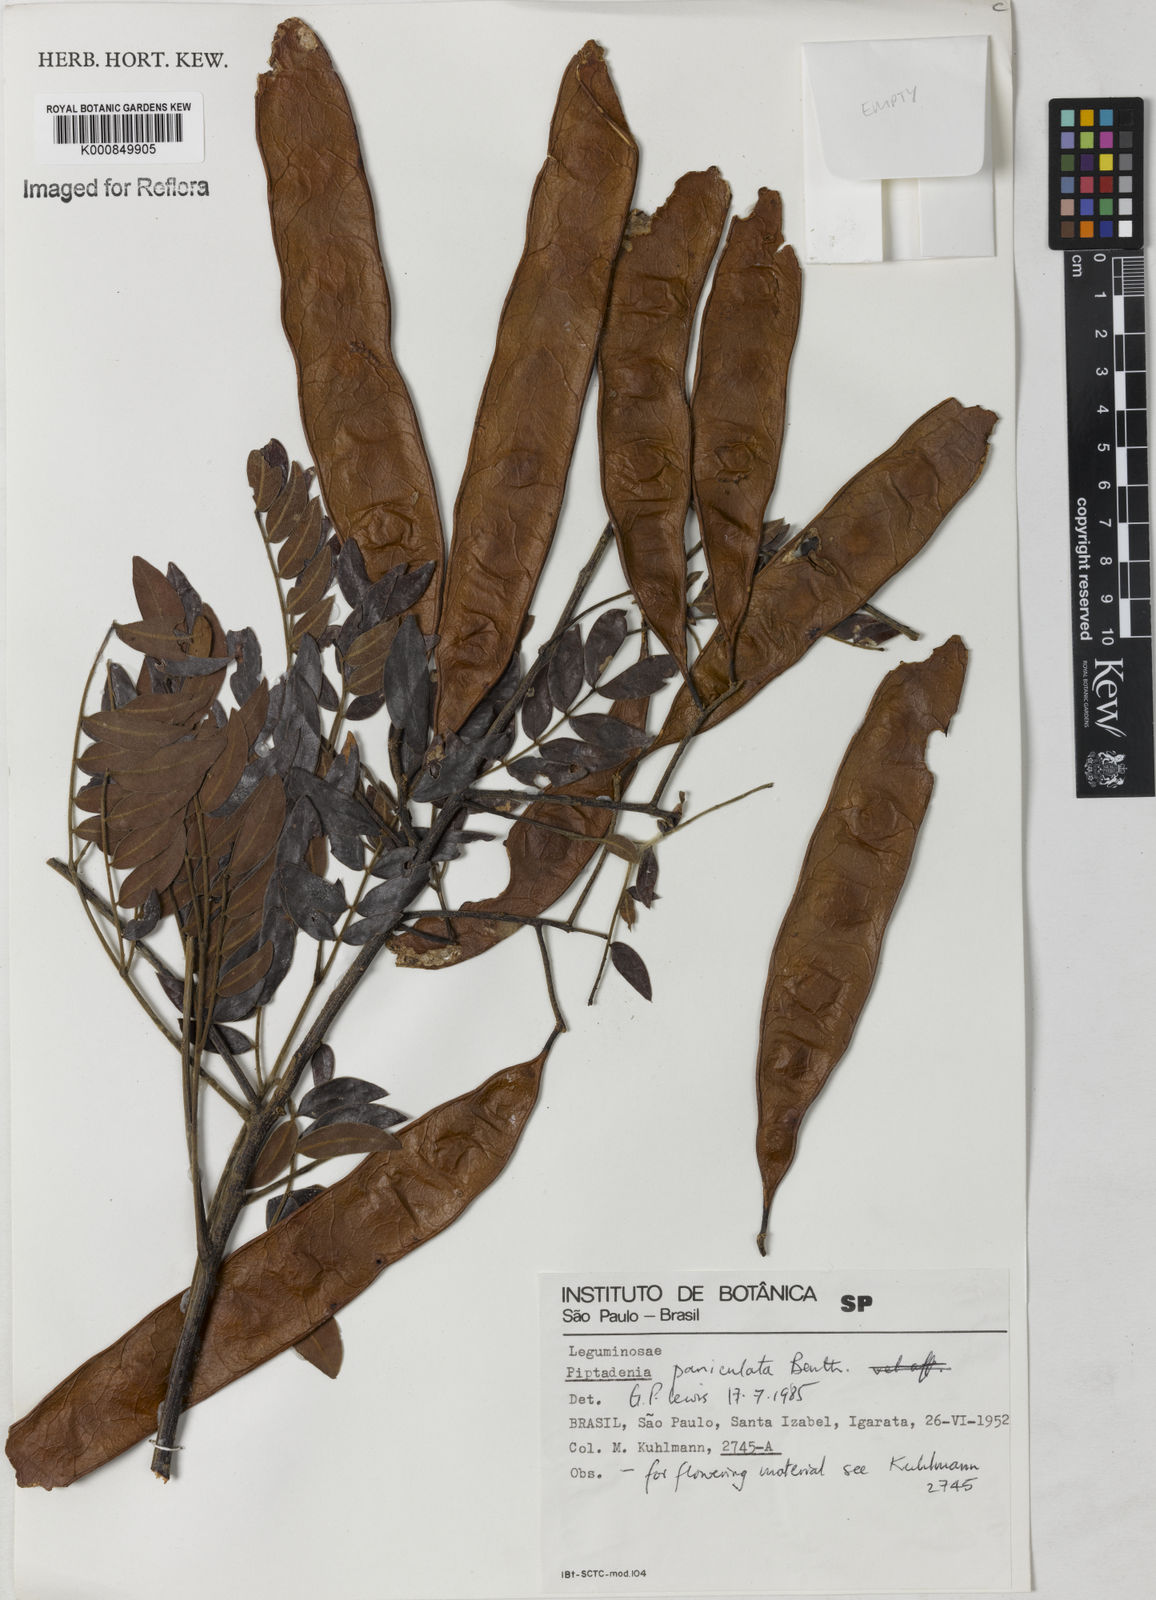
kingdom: Plantae
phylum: Tracheophyta
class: Magnoliopsida
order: Fabales
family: Fabaceae
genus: Piptadenia
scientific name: Piptadenia paniculata
